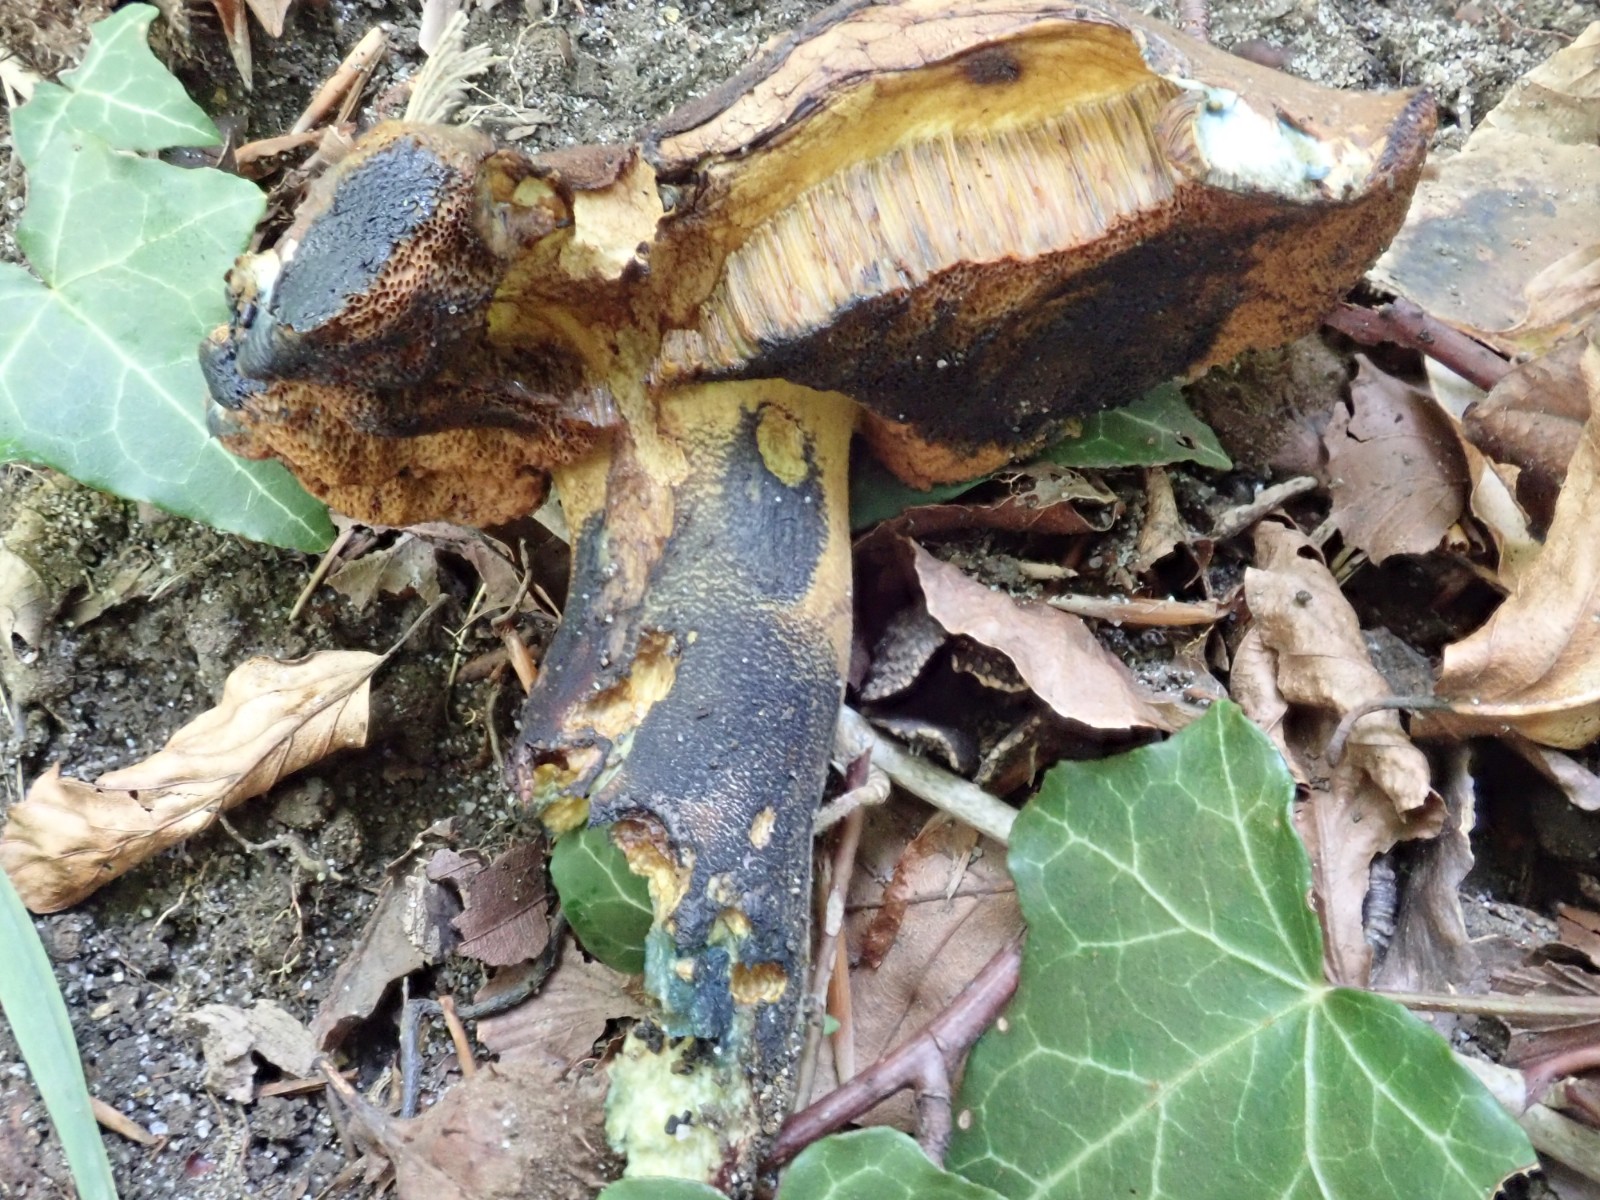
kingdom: Fungi
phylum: Basidiomycota
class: Agaricomycetes
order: Boletales
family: Boletaceae
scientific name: Boletaceae
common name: rørhatfamilien
